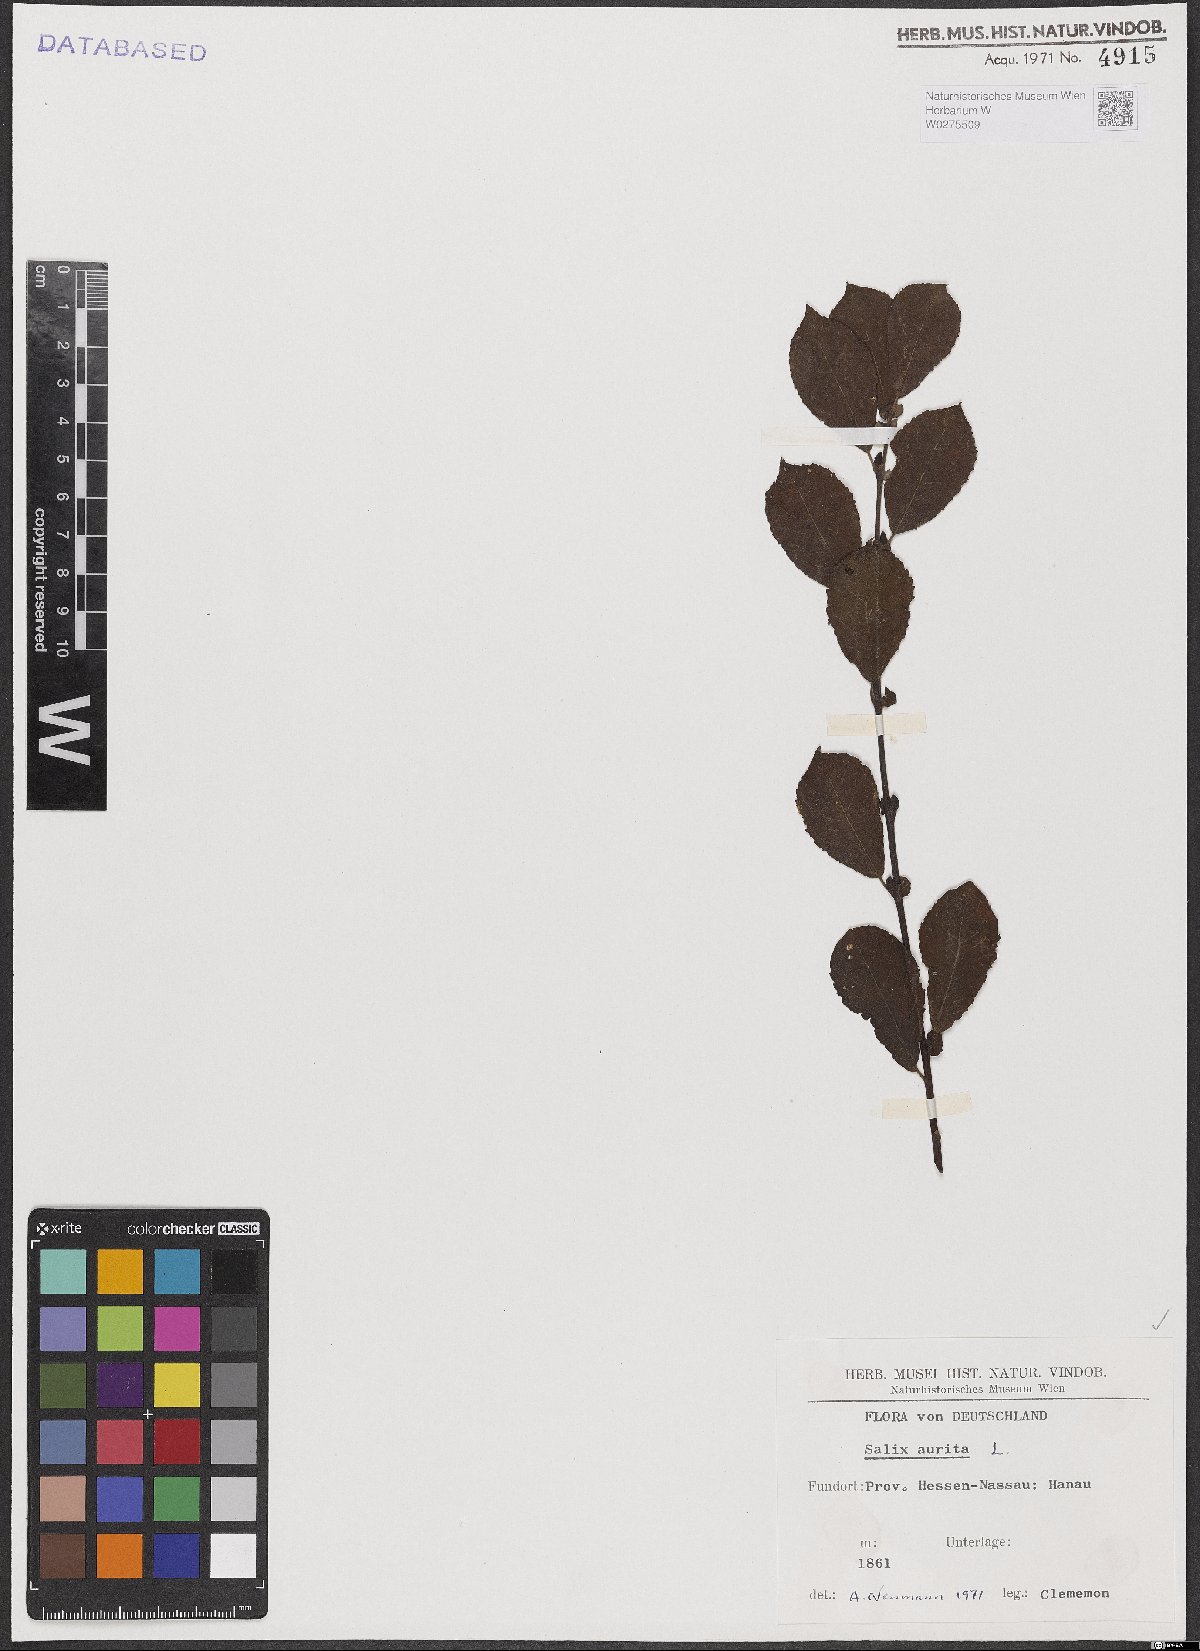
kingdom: Plantae
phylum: Tracheophyta
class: Magnoliopsida
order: Malpighiales
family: Salicaceae
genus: Salix
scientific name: Salix aurita
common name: Eared willow
